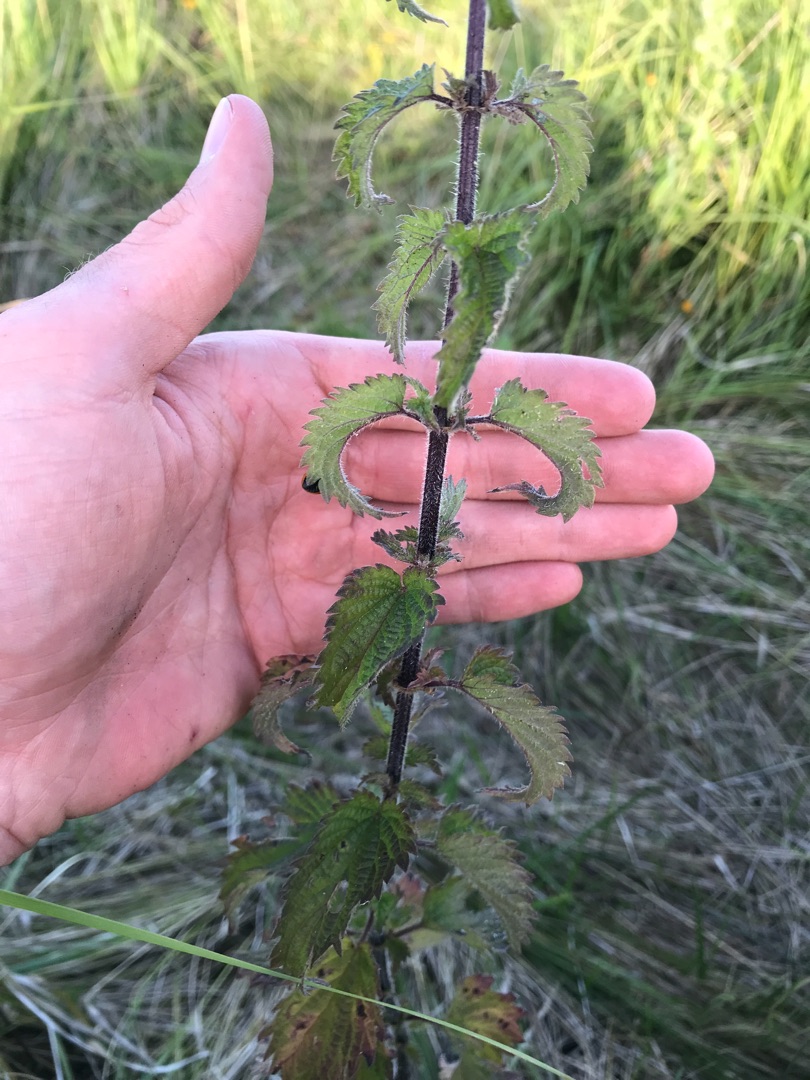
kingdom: Plantae
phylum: Tracheophyta
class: Magnoliopsida
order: Rosales
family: Urticaceae
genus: Urtica
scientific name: Urtica dioica
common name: Stor nælde
